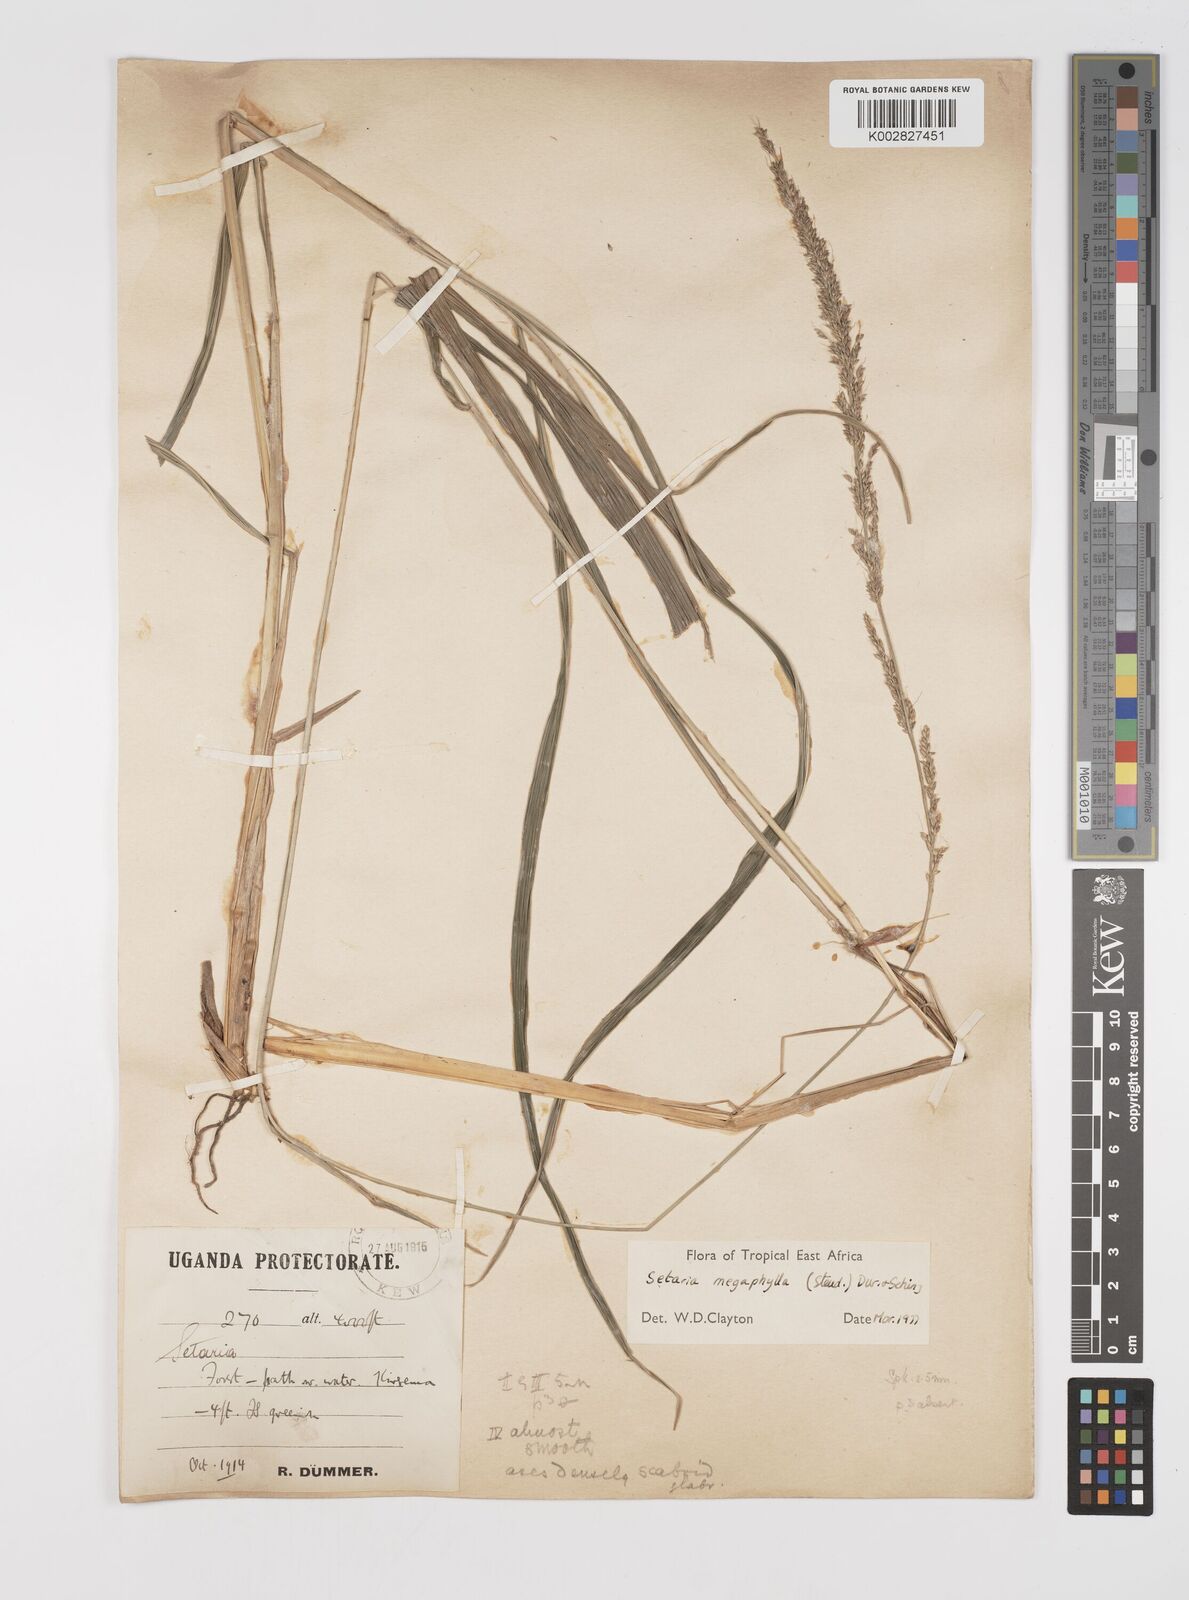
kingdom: Plantae
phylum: Tracheophyta
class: Liliopsida
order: Poales
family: Poaceae
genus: Setaria
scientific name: Setaria megaphylla
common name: Bigleaf bristlegrass
